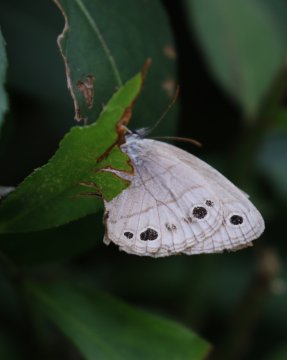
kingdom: Animalia
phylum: Arthropoda
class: Insecta
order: Lepidoptera
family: Nymphalidae
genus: Euptychia
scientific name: Euptychia cymela
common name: Little Wood Satyr
